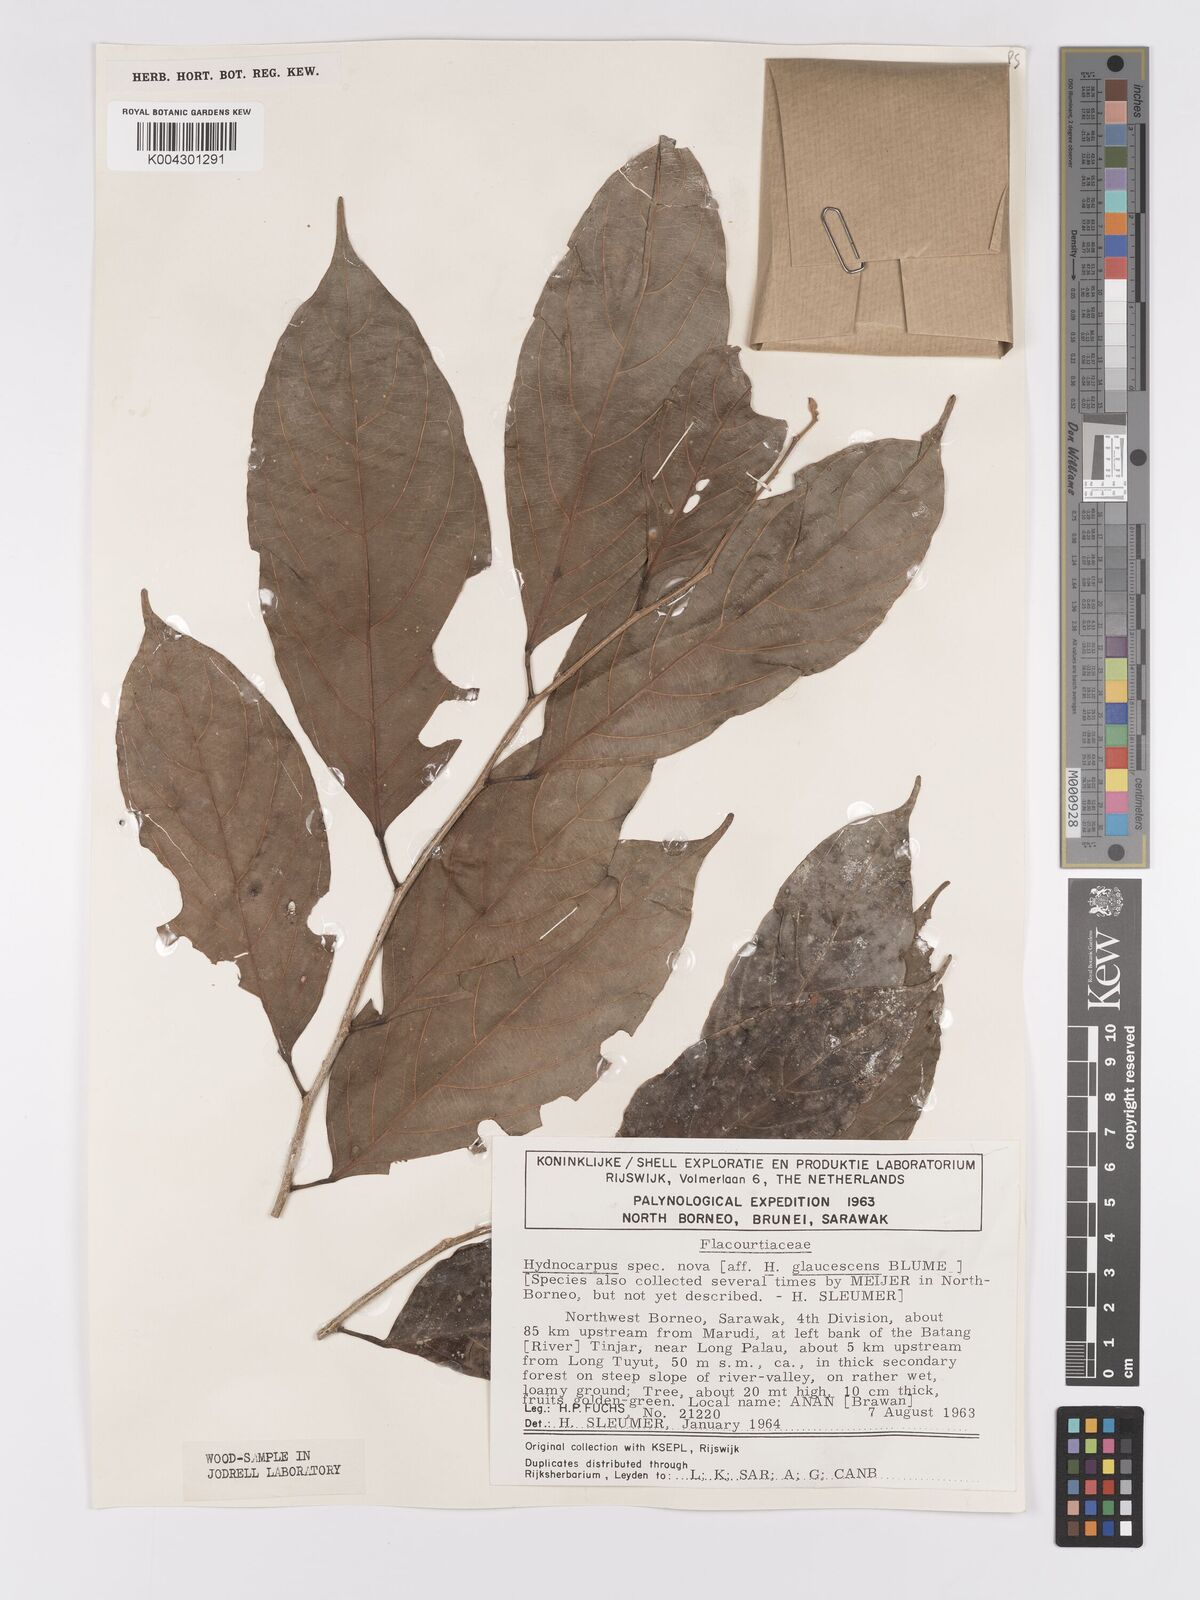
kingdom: Plantae
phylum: Tracheophyta
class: Magnoliopsida
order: Malpighiales
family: Achariaceae
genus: Hydnocarpus
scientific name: Hydnocarpus
